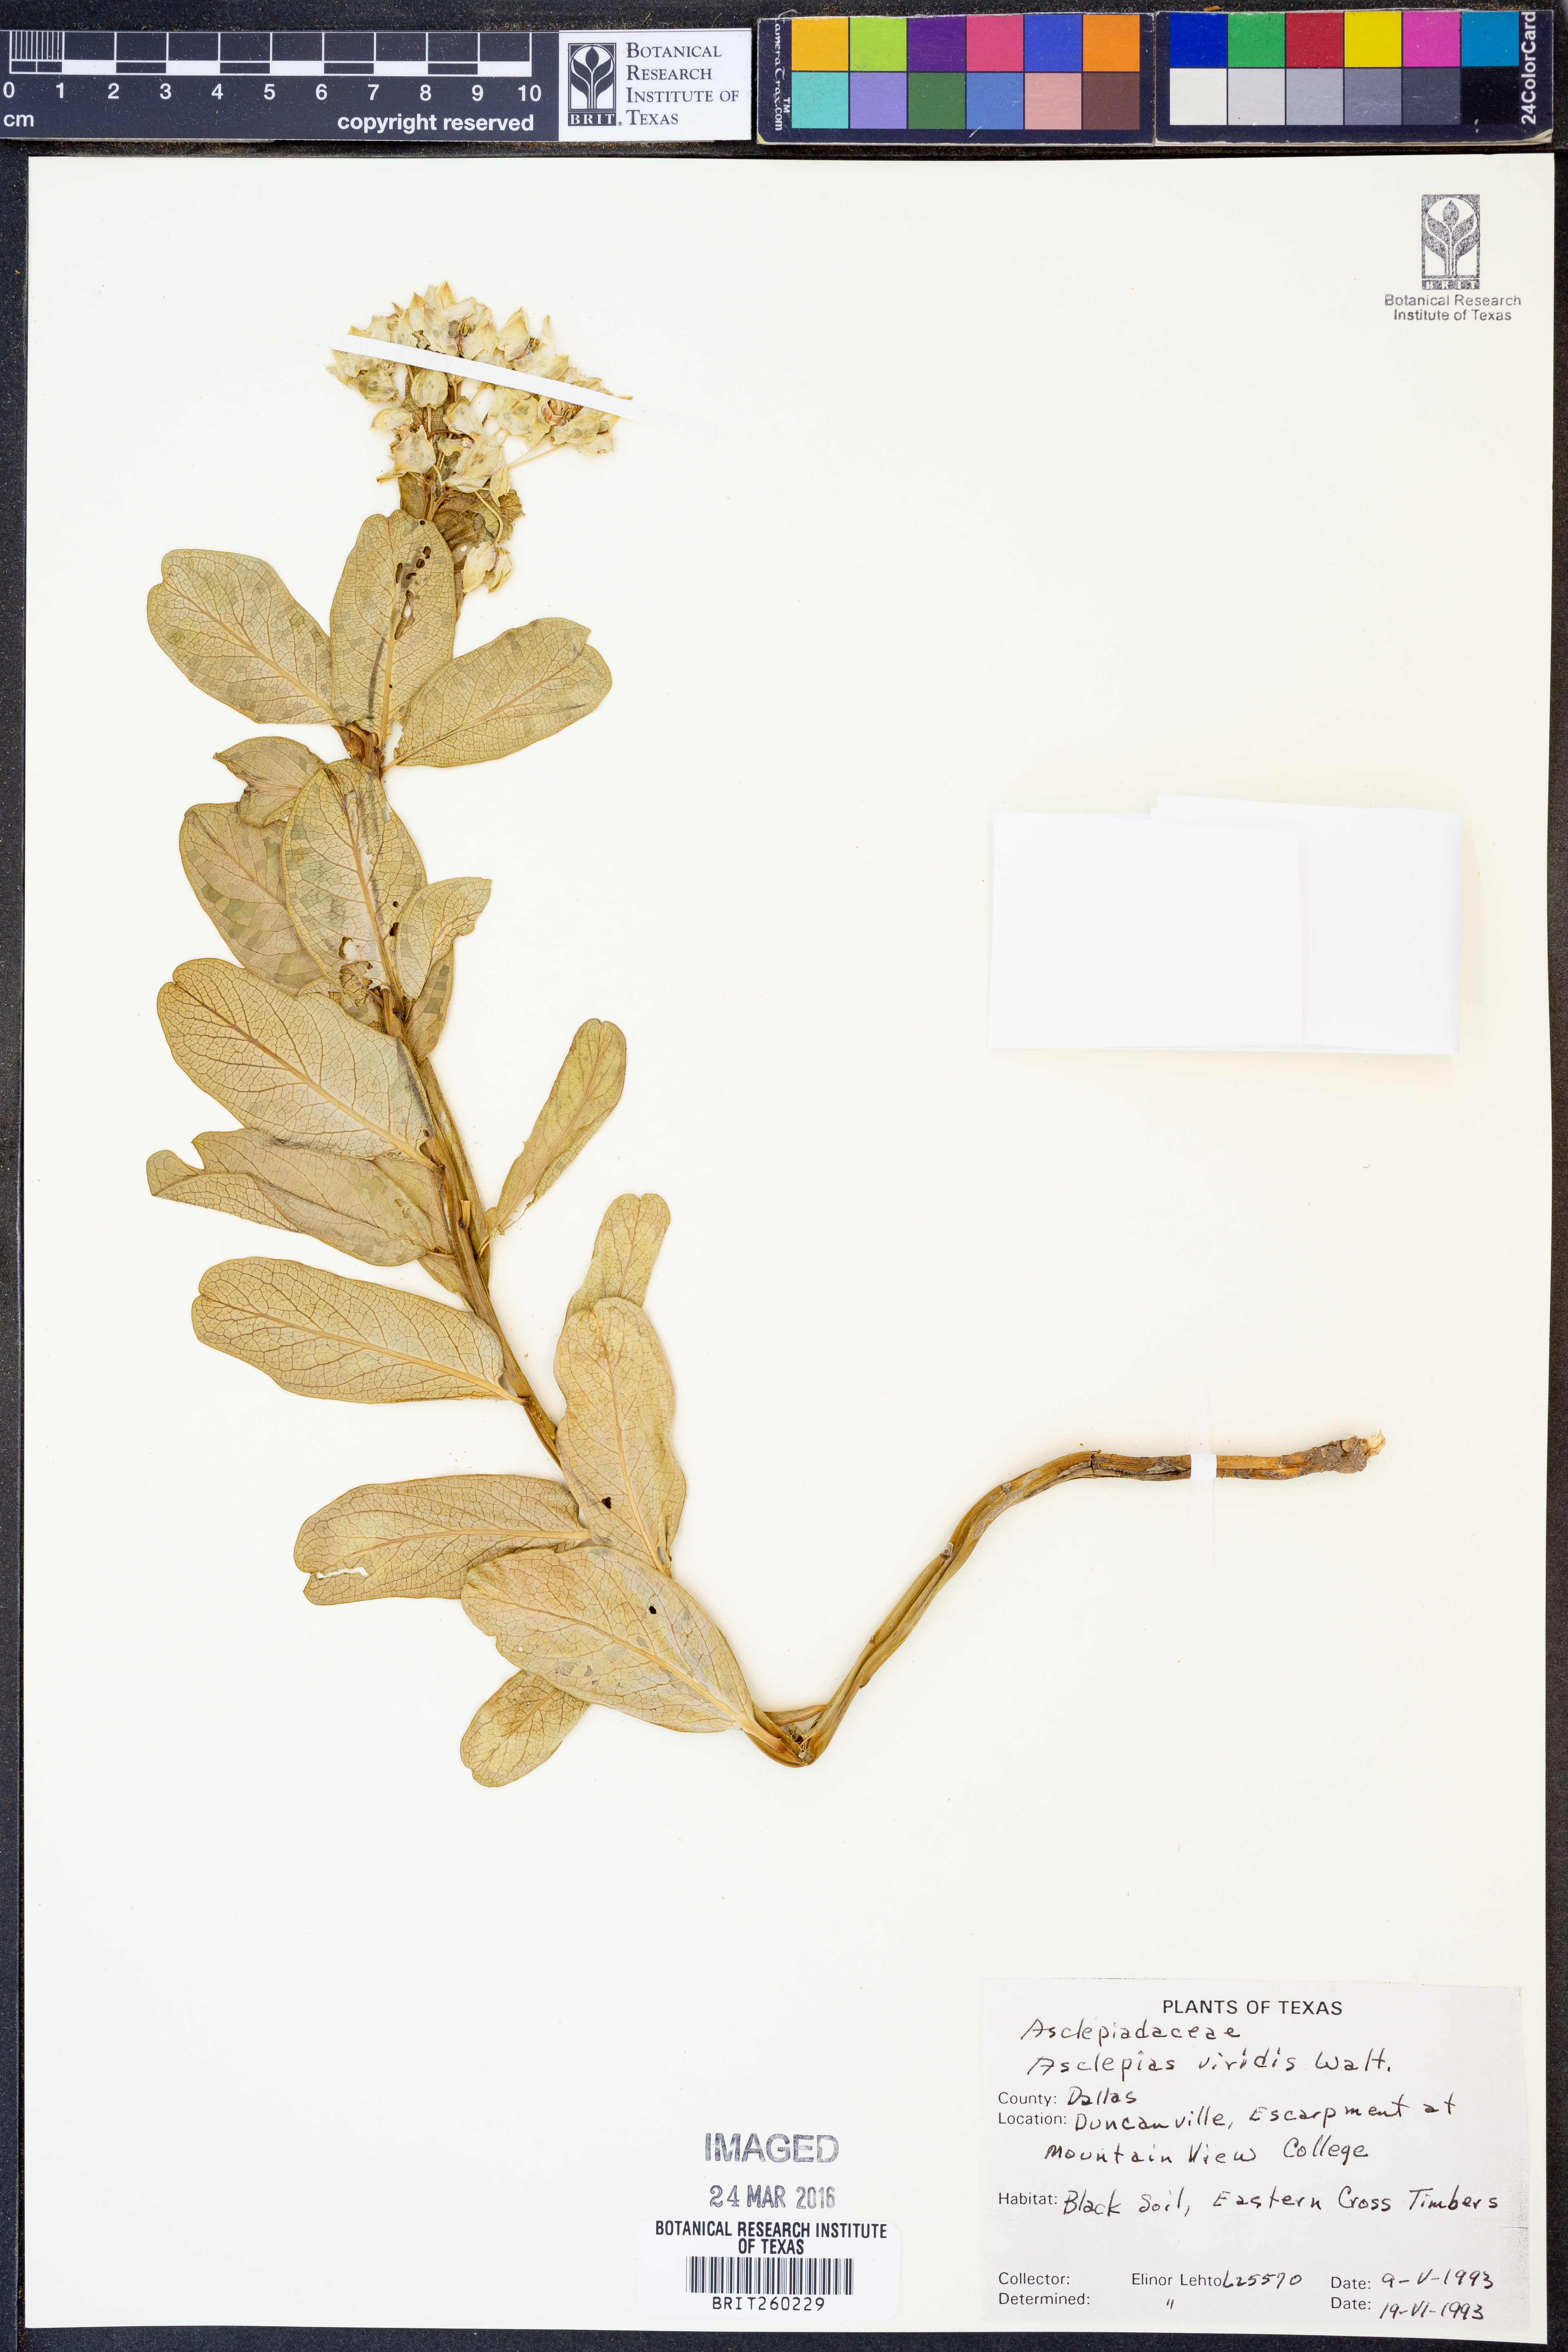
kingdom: Plantae
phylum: Tracheophyta
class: Magnoliopsida
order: Gentianales
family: Apocynaceae
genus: Asclepias
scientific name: Asclepias viridis
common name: Antelope-horns
